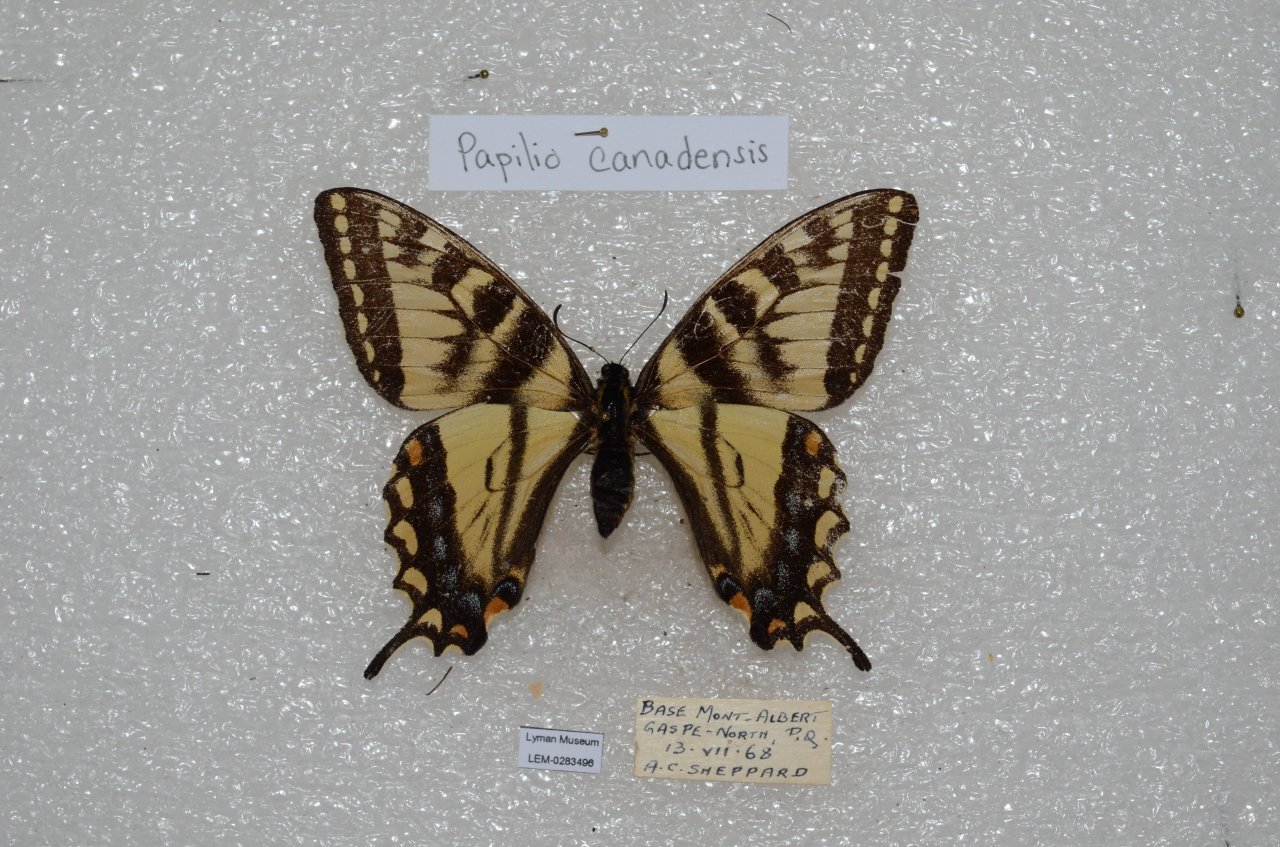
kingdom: Animalia
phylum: Arthropoda
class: Insecta
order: Lepidoptera
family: Papilionidae
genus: Pterourus
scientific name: Pterourus canadensis
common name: Canadian Tiger Swallowtail
